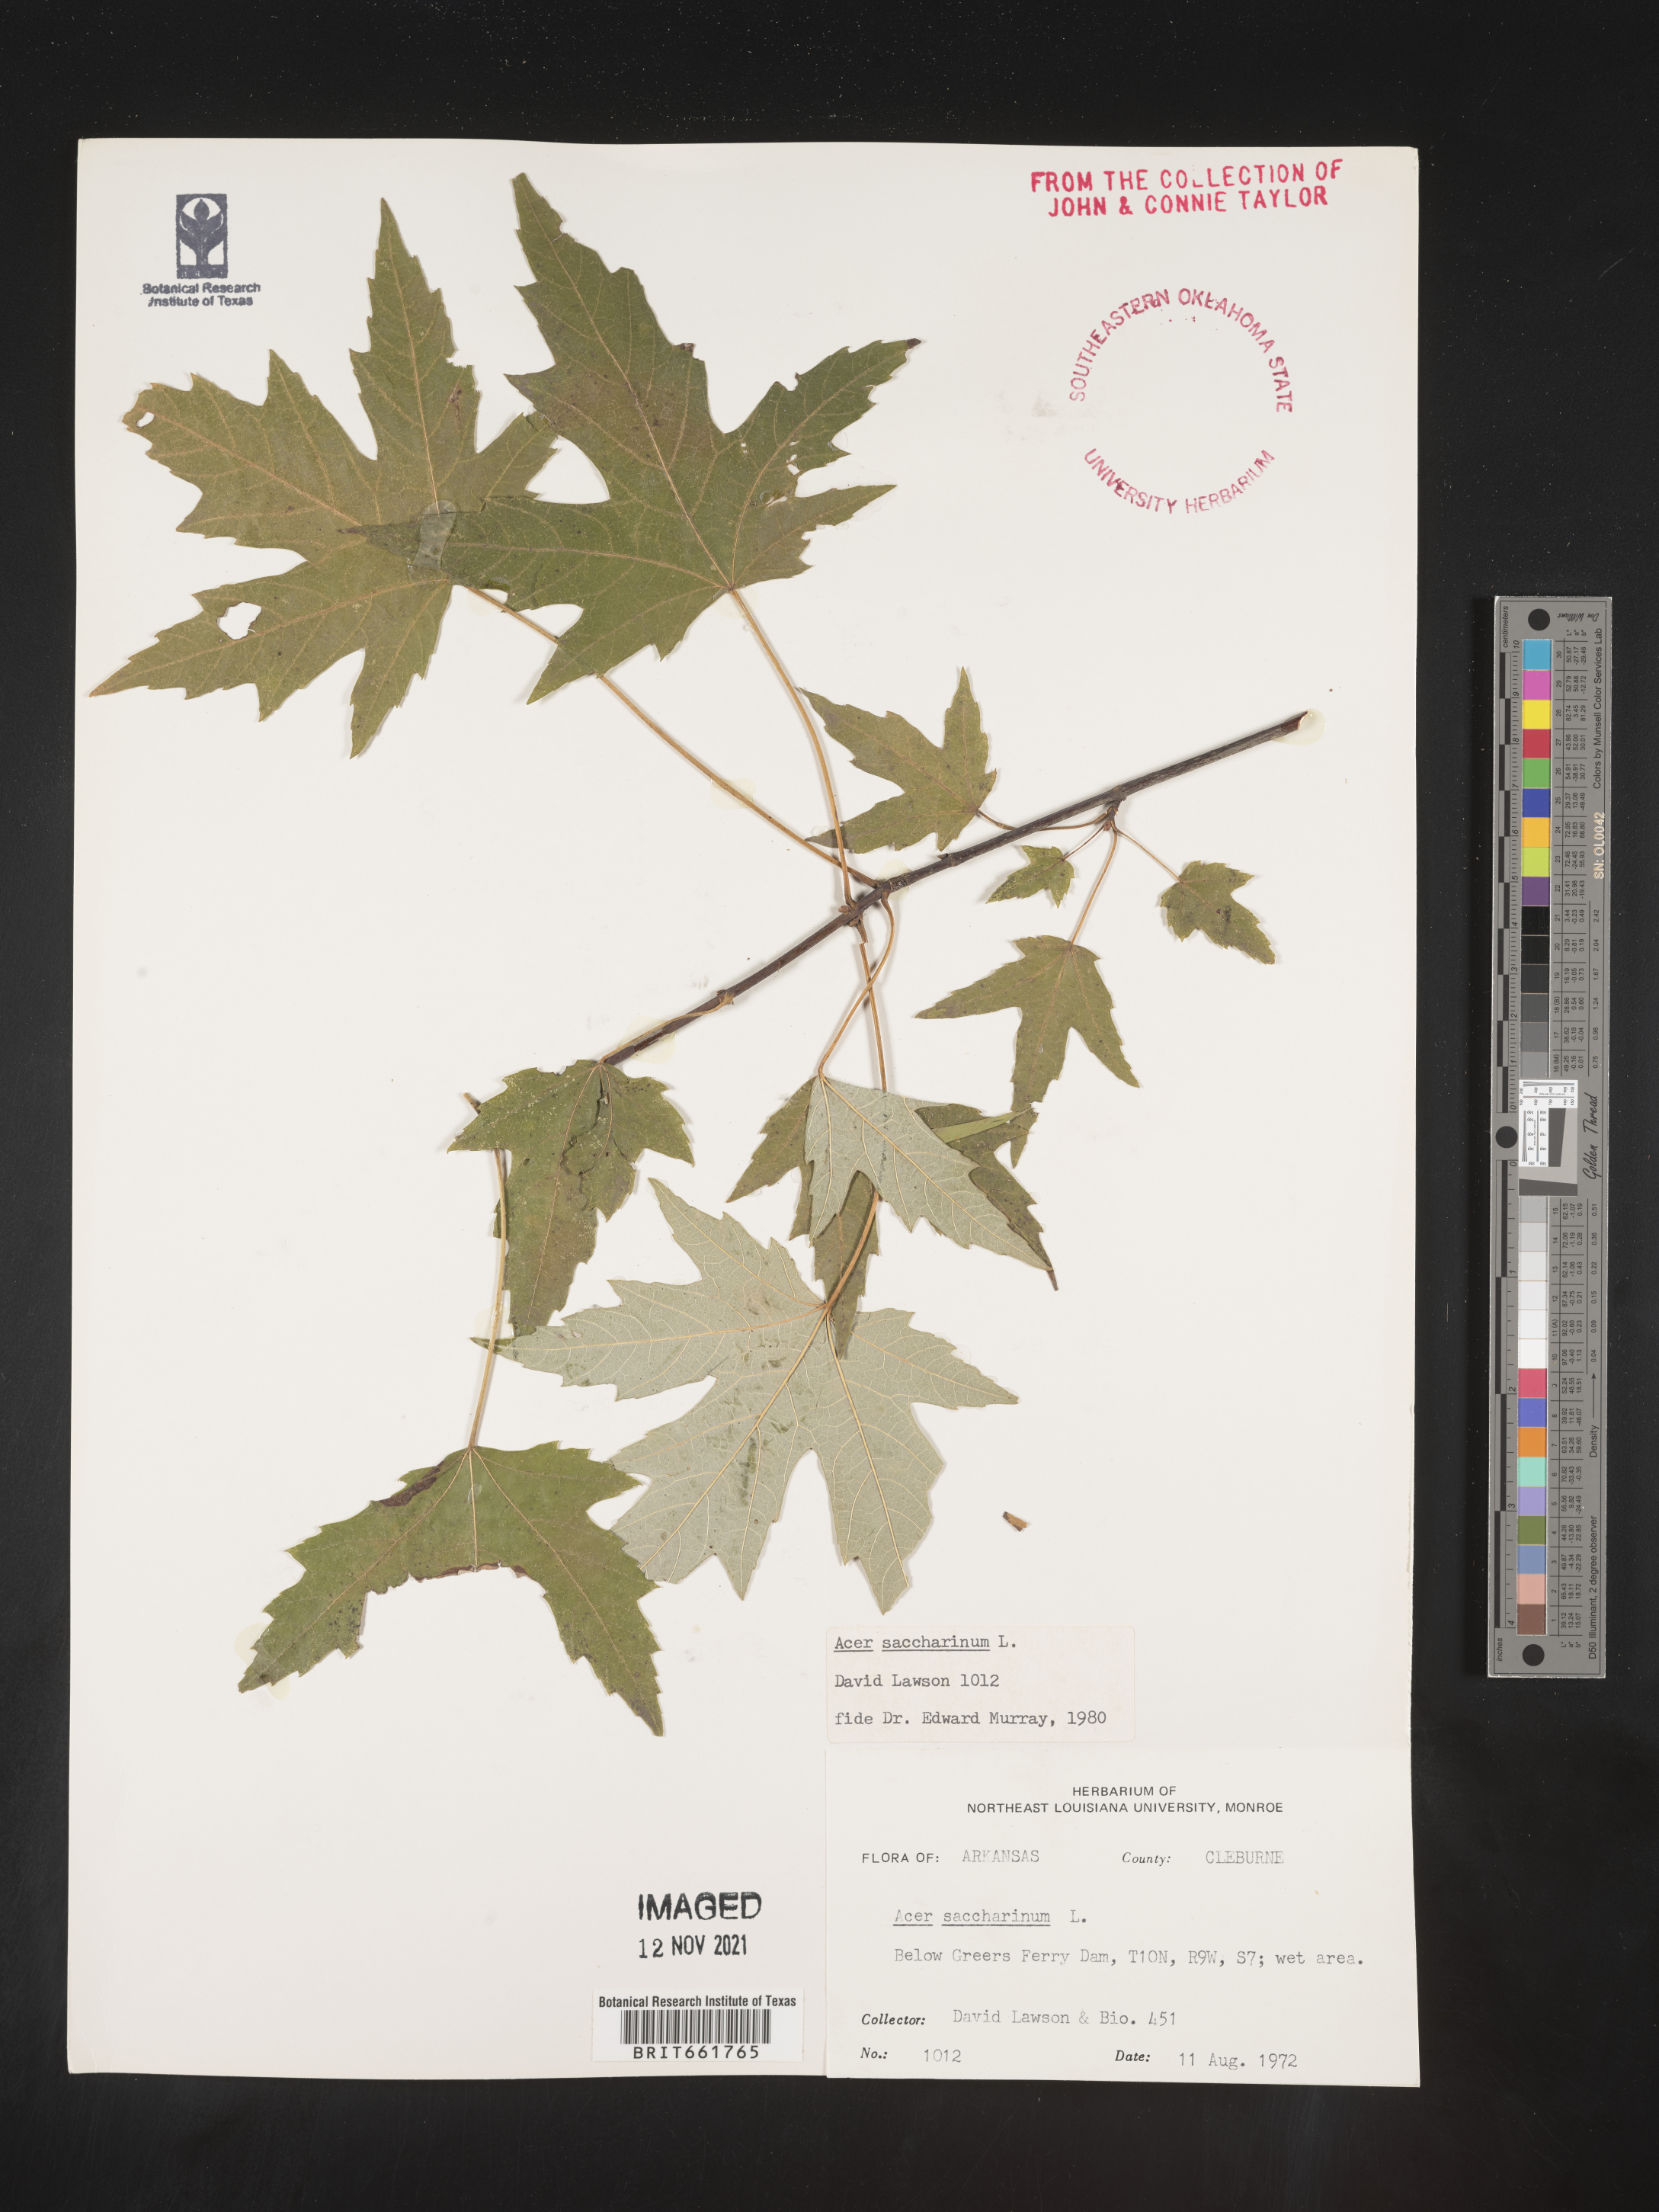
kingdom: Plantae
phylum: Tracheophyta
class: Magnoliopsida
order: Sapindales
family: Sapindaceae
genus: Acer
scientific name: Acer saccharinum
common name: Silver maple
